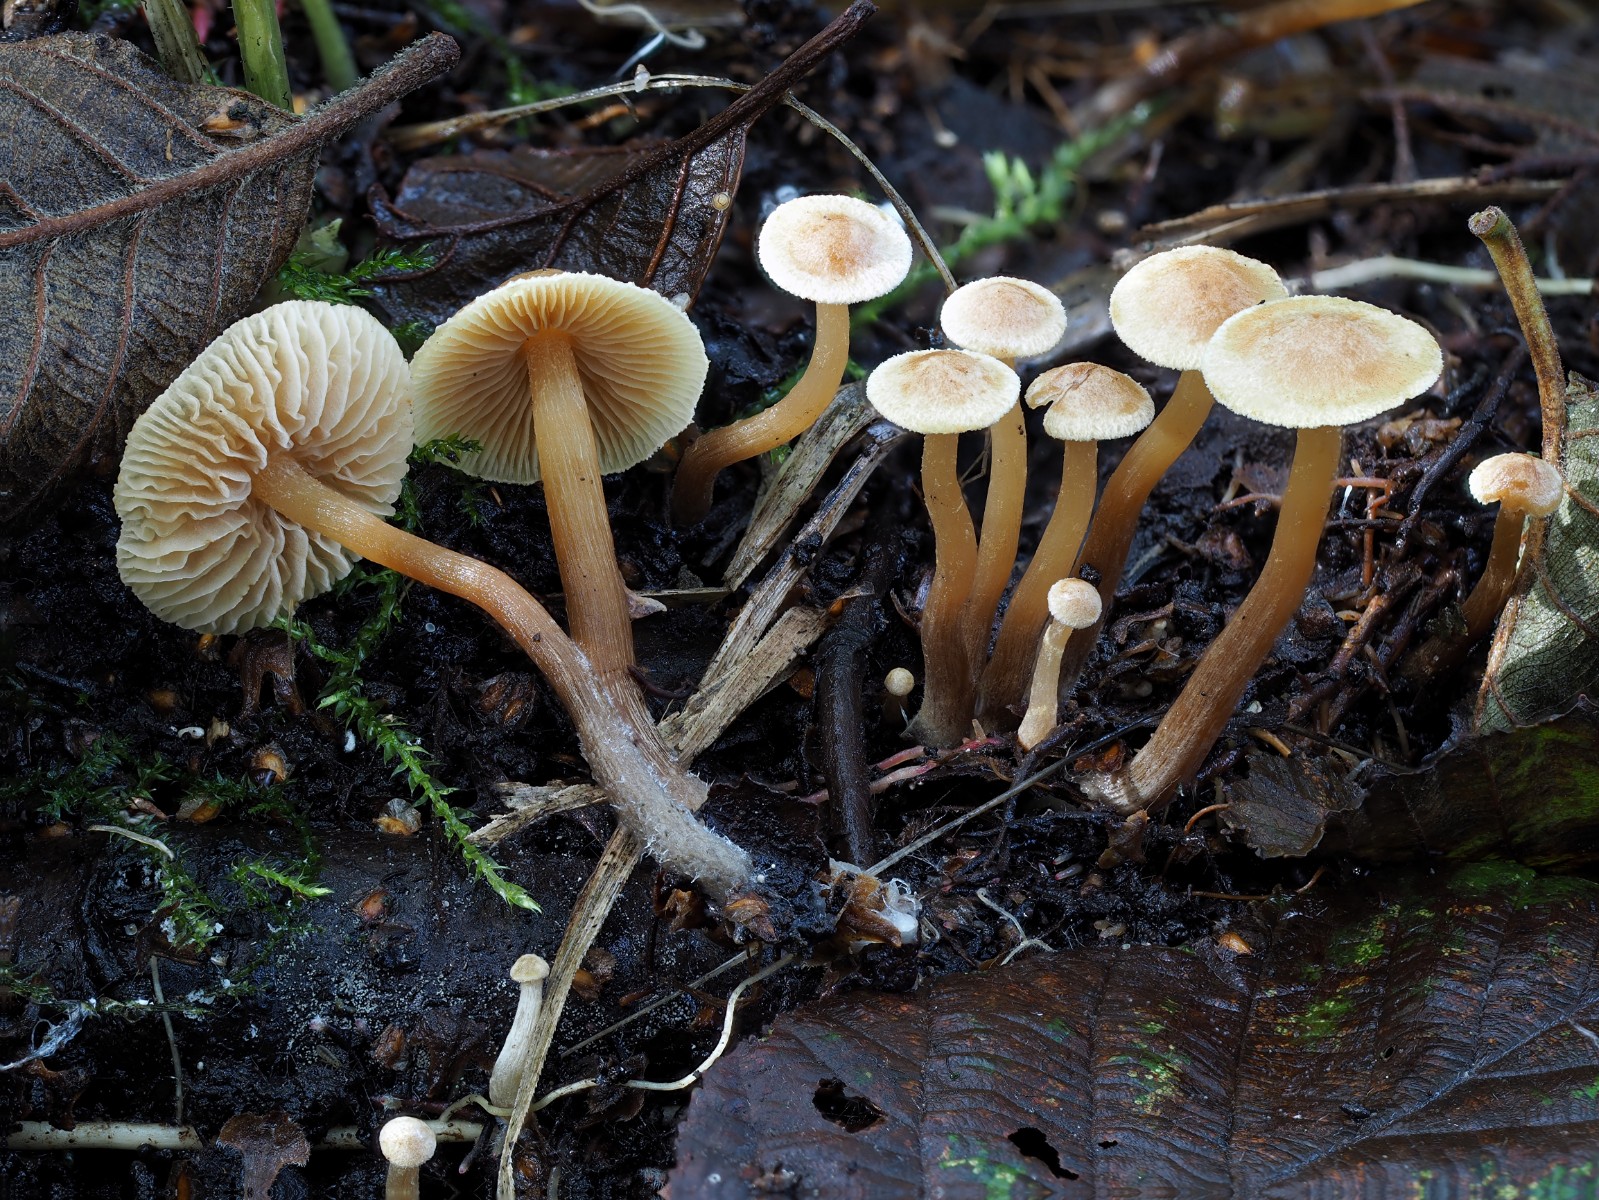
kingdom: Fungi
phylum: Basidiomycota
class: Agaricomycetes
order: Agaricales
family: Hymenogastraceae
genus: Naucoria
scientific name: Naucoria escharioides
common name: lys elle-knaphat
